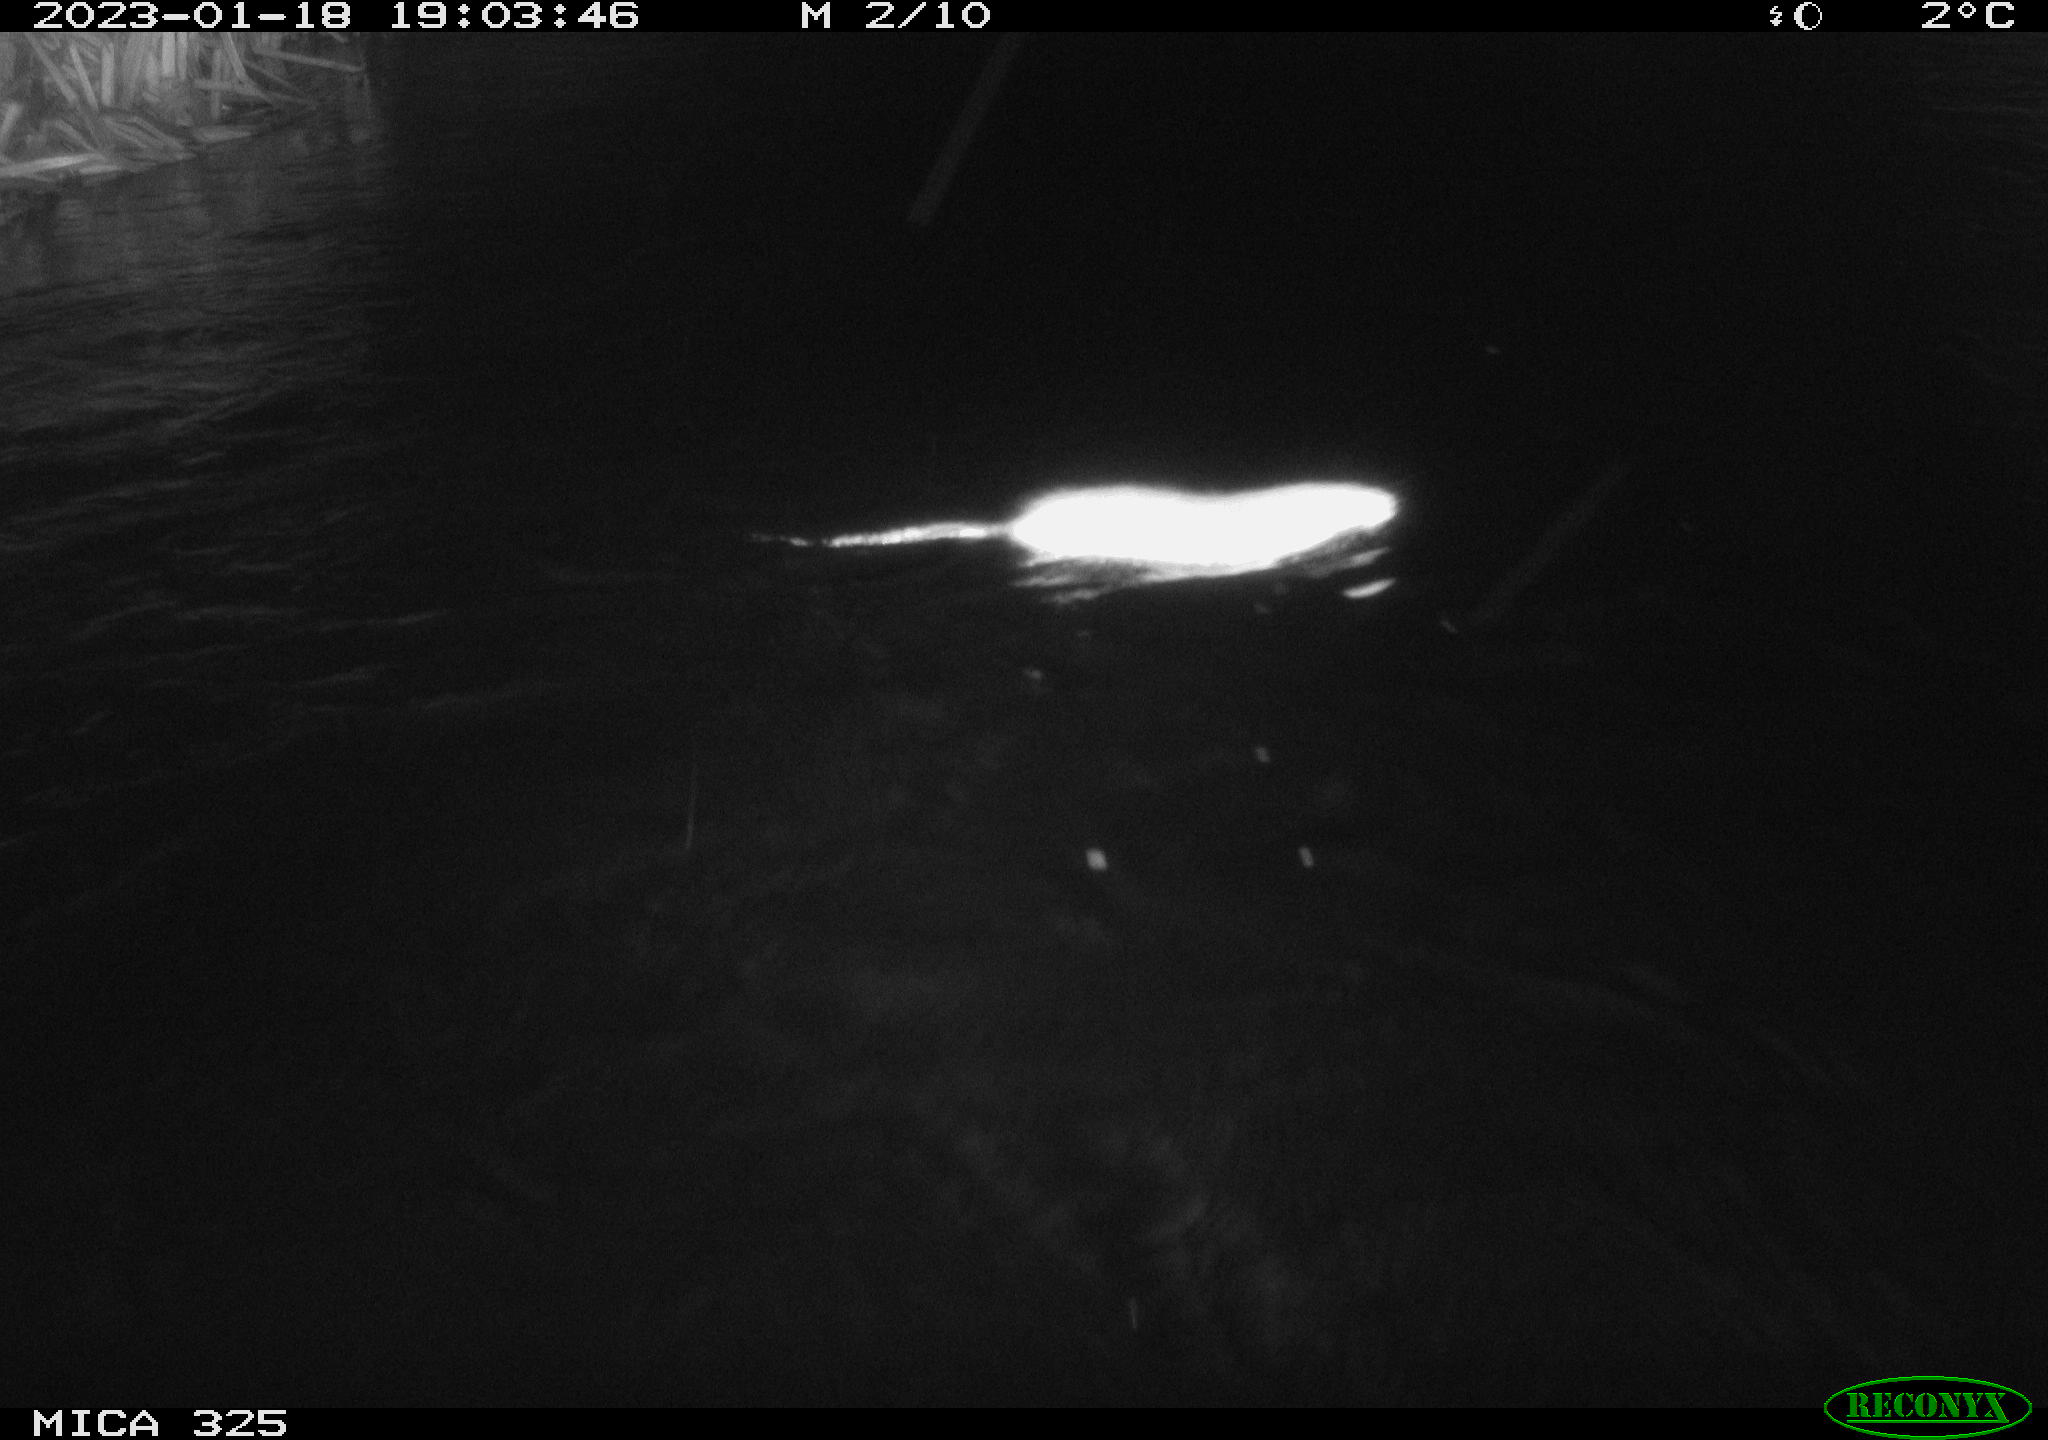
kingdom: Animalia
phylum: Chordata
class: Mammalia
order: Rodentia
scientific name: Rodentia
